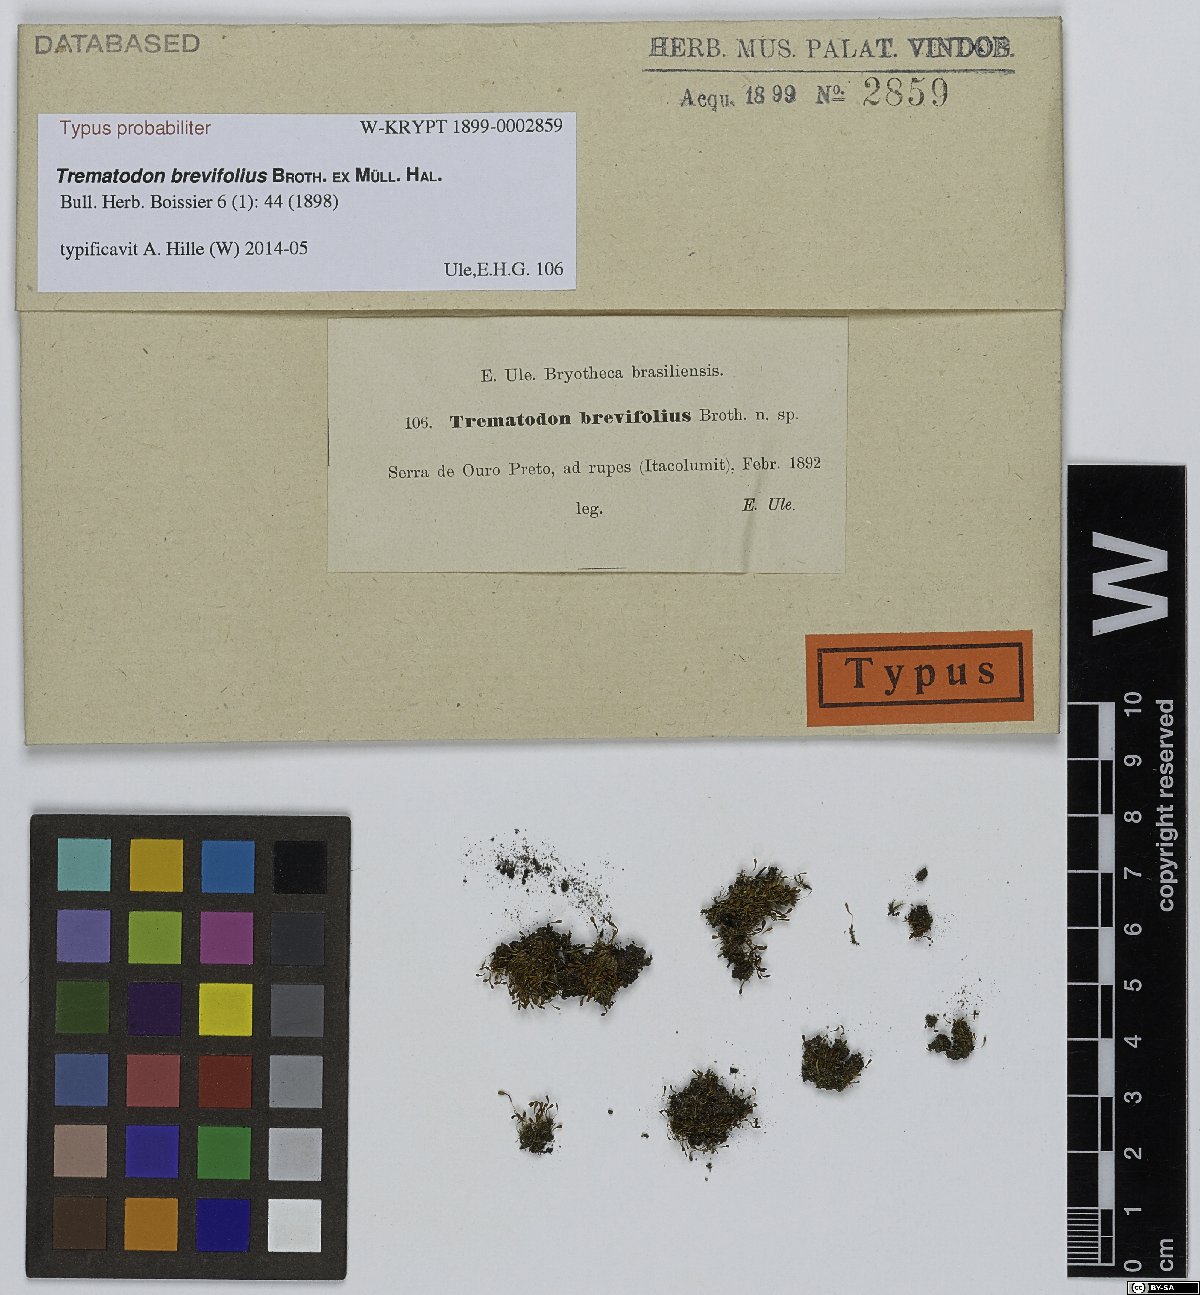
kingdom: Plantae
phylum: Bryophyta
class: Bryopsida
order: Dicranales
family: Bruchiaceae
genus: Trematodon
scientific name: Trematodon brevifolius
